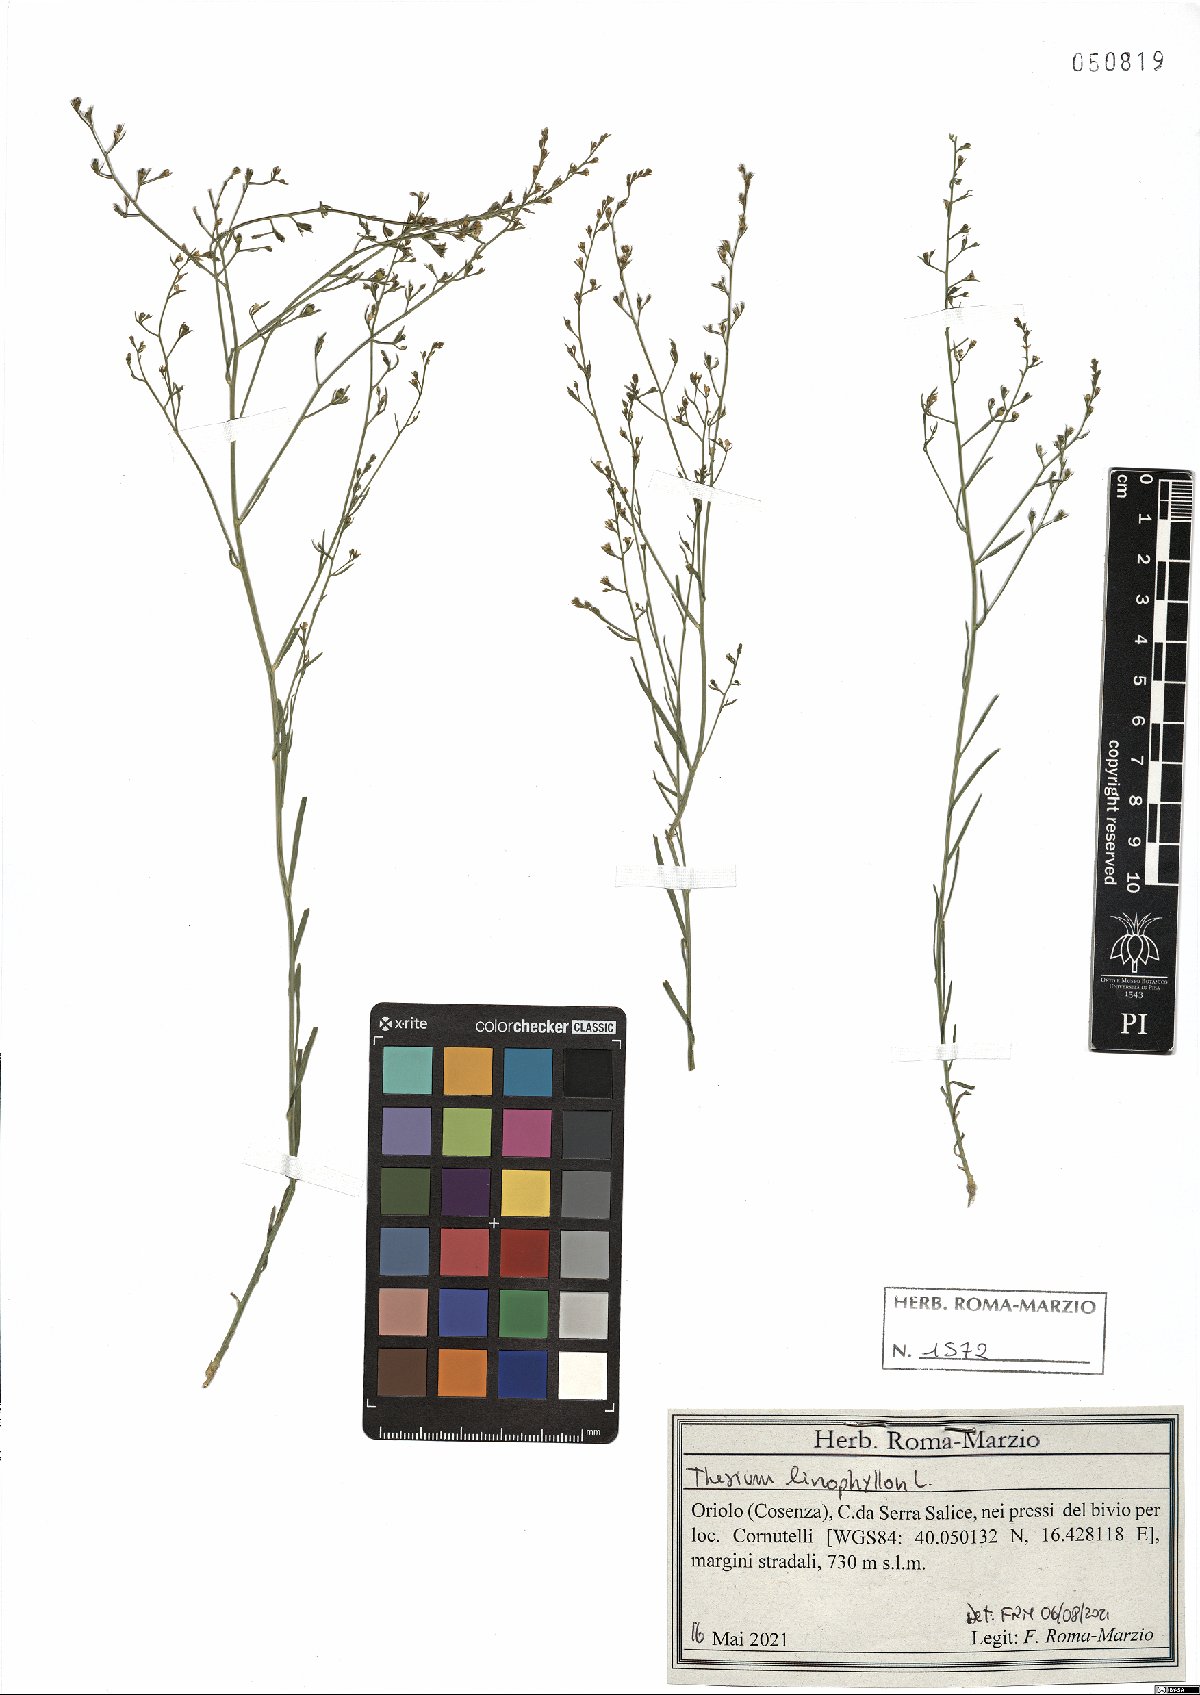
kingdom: Plantae
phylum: Tracheophyta
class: Magnoliopsida
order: Santalales
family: Thesiaceae
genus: Thesium
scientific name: Thesium linophyllon
